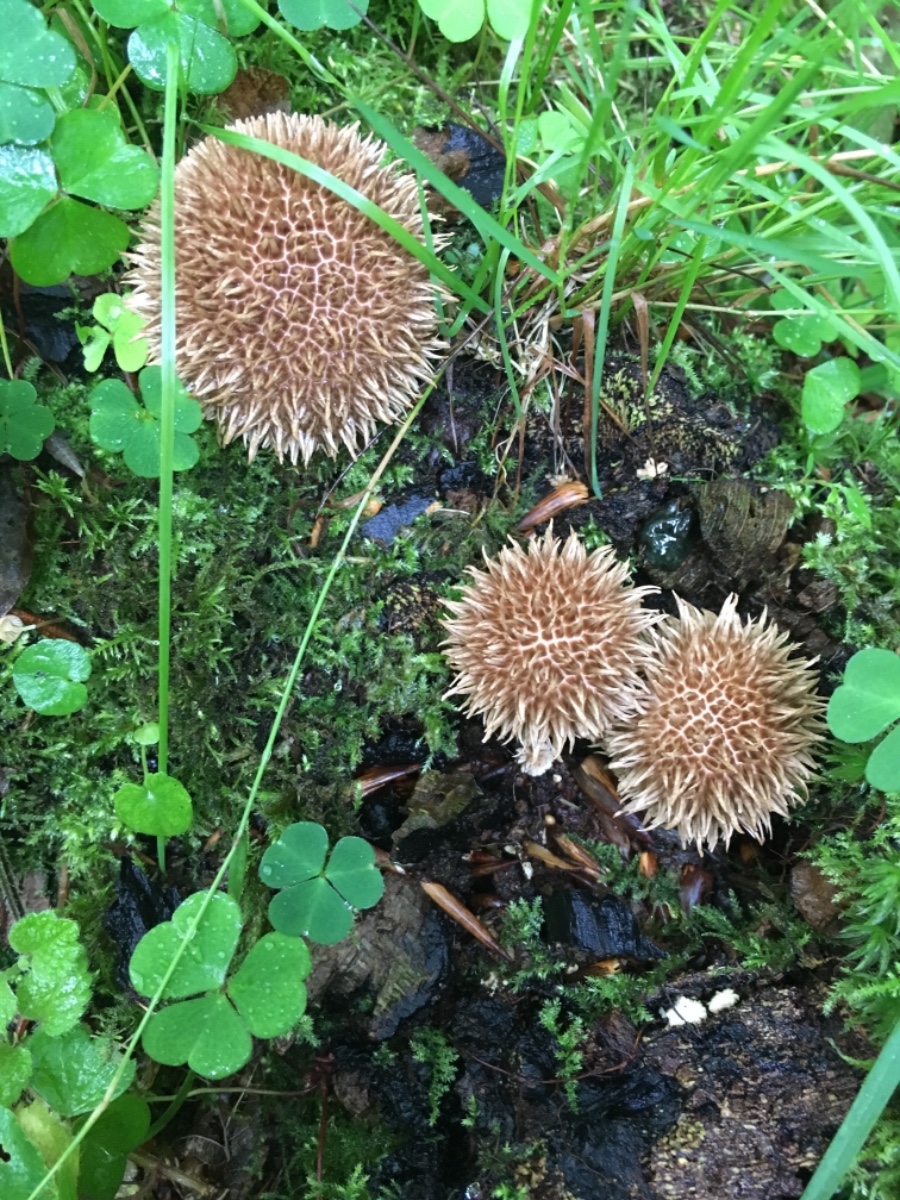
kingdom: Fungi
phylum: Basidiomycota
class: Agaricomycetes
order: Agaricales
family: Lycoperdaceae
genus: Lycoperdon
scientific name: Lycoperdon echinatum
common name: pindsvine-støvbold
